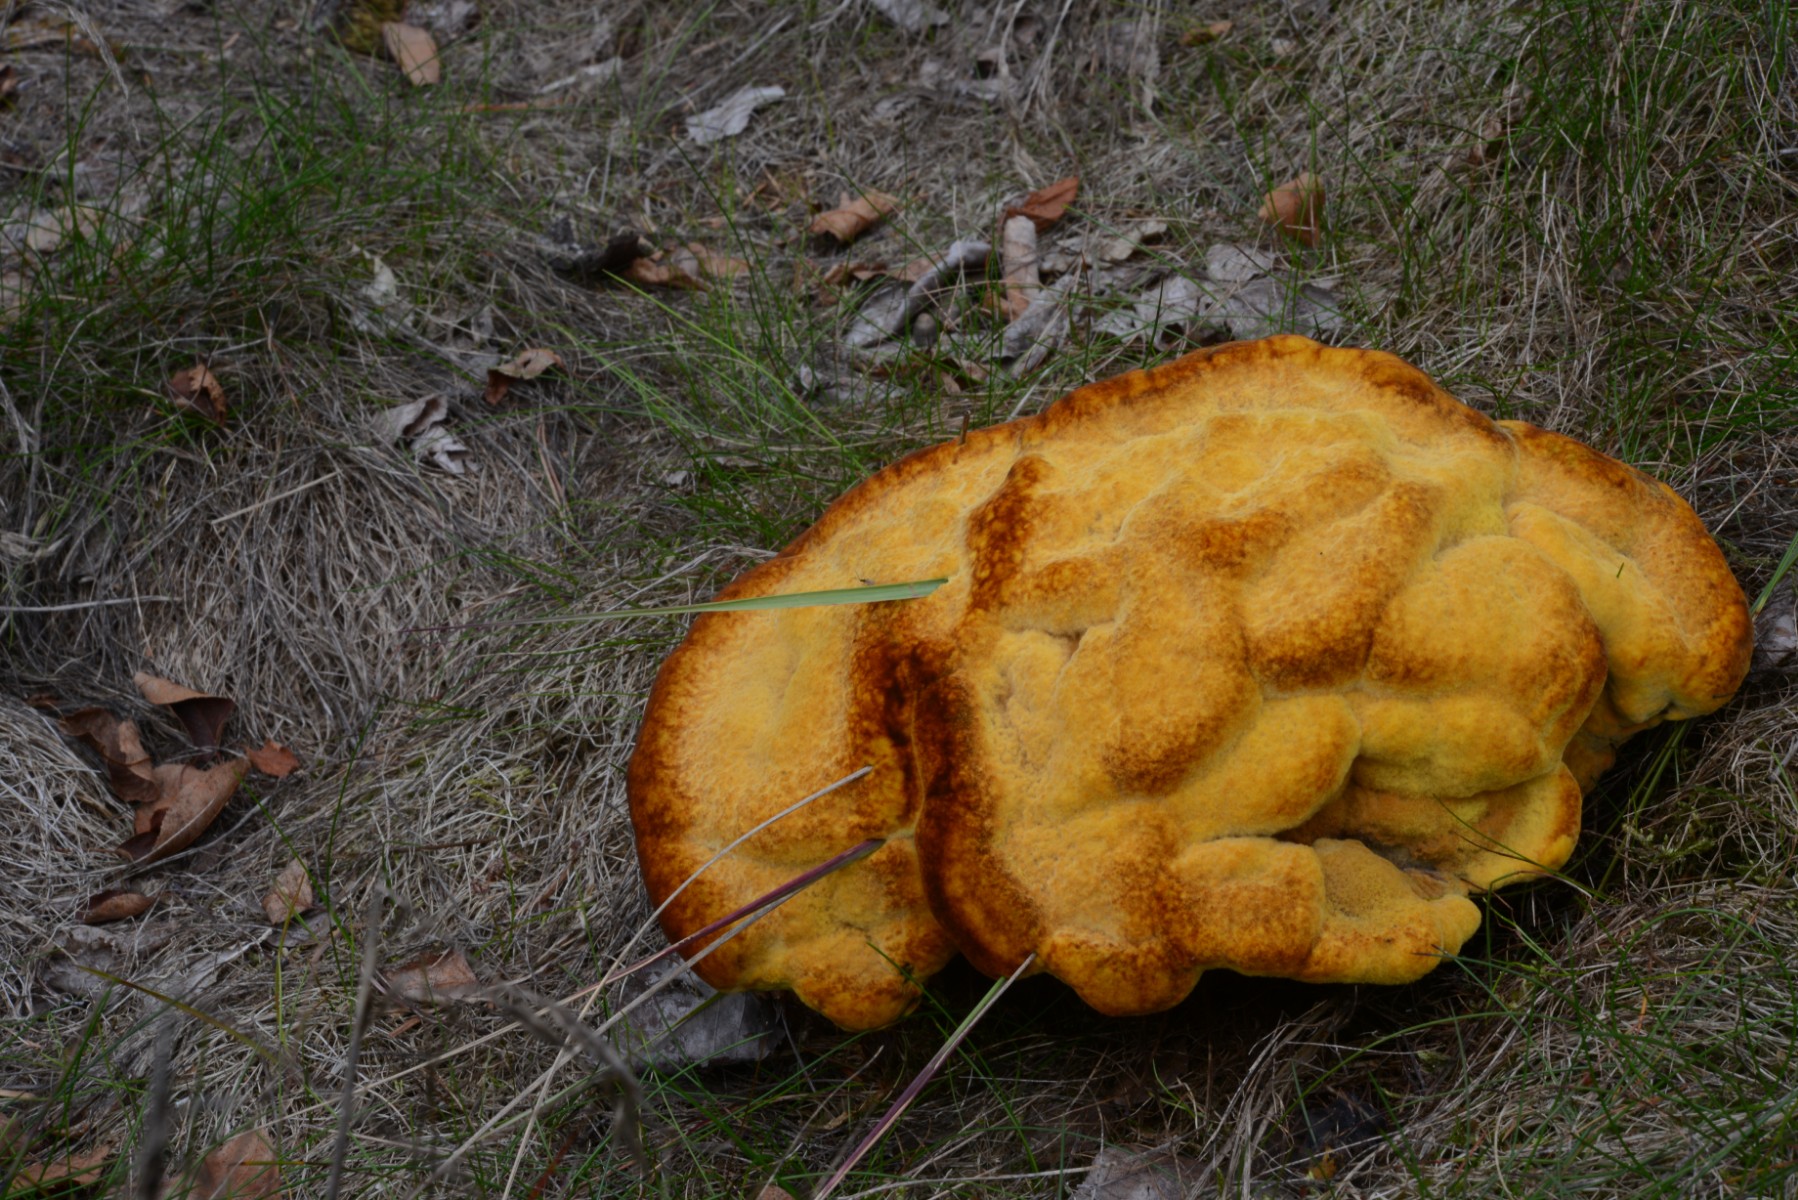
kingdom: Fungi
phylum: Basidiomycota
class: Agaricomycetes
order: Polyporales
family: Laetiporaceae
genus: Phaeolus
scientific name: Phaeolus schweinitzii
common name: brunporesvamp
